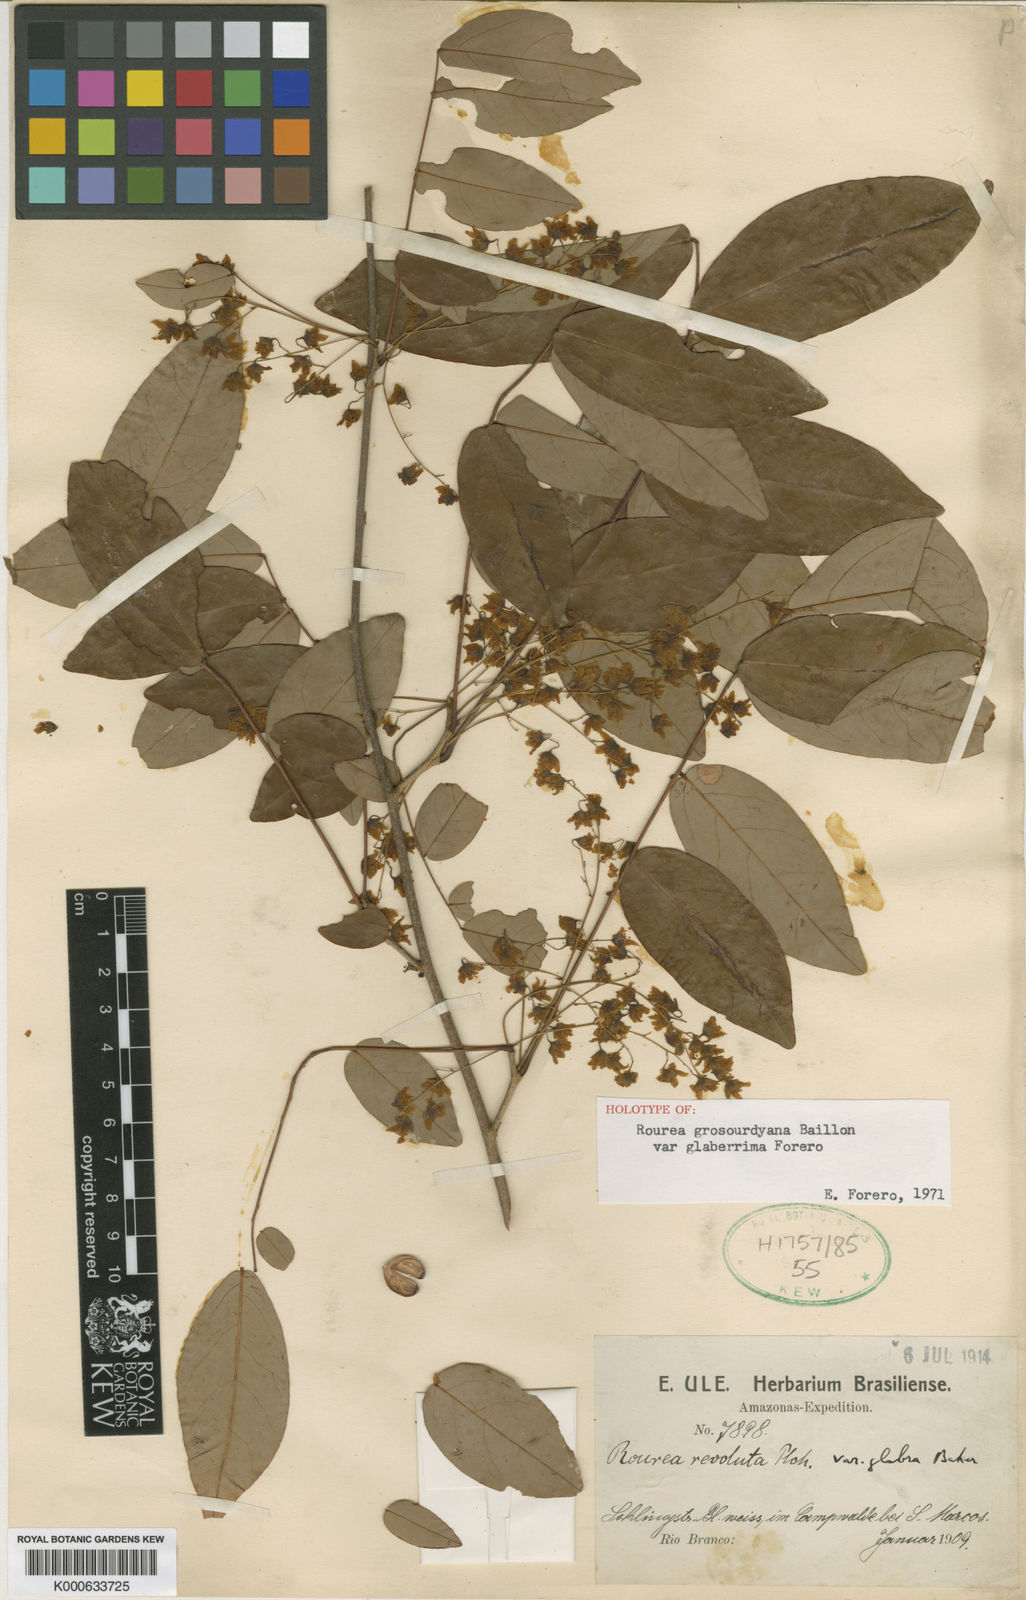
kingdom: Plantae
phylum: Tracheophyta
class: Magnoliopsida
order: Oxalidales
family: Connaraceae
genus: Rourea
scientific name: Rourea grosourdyana
